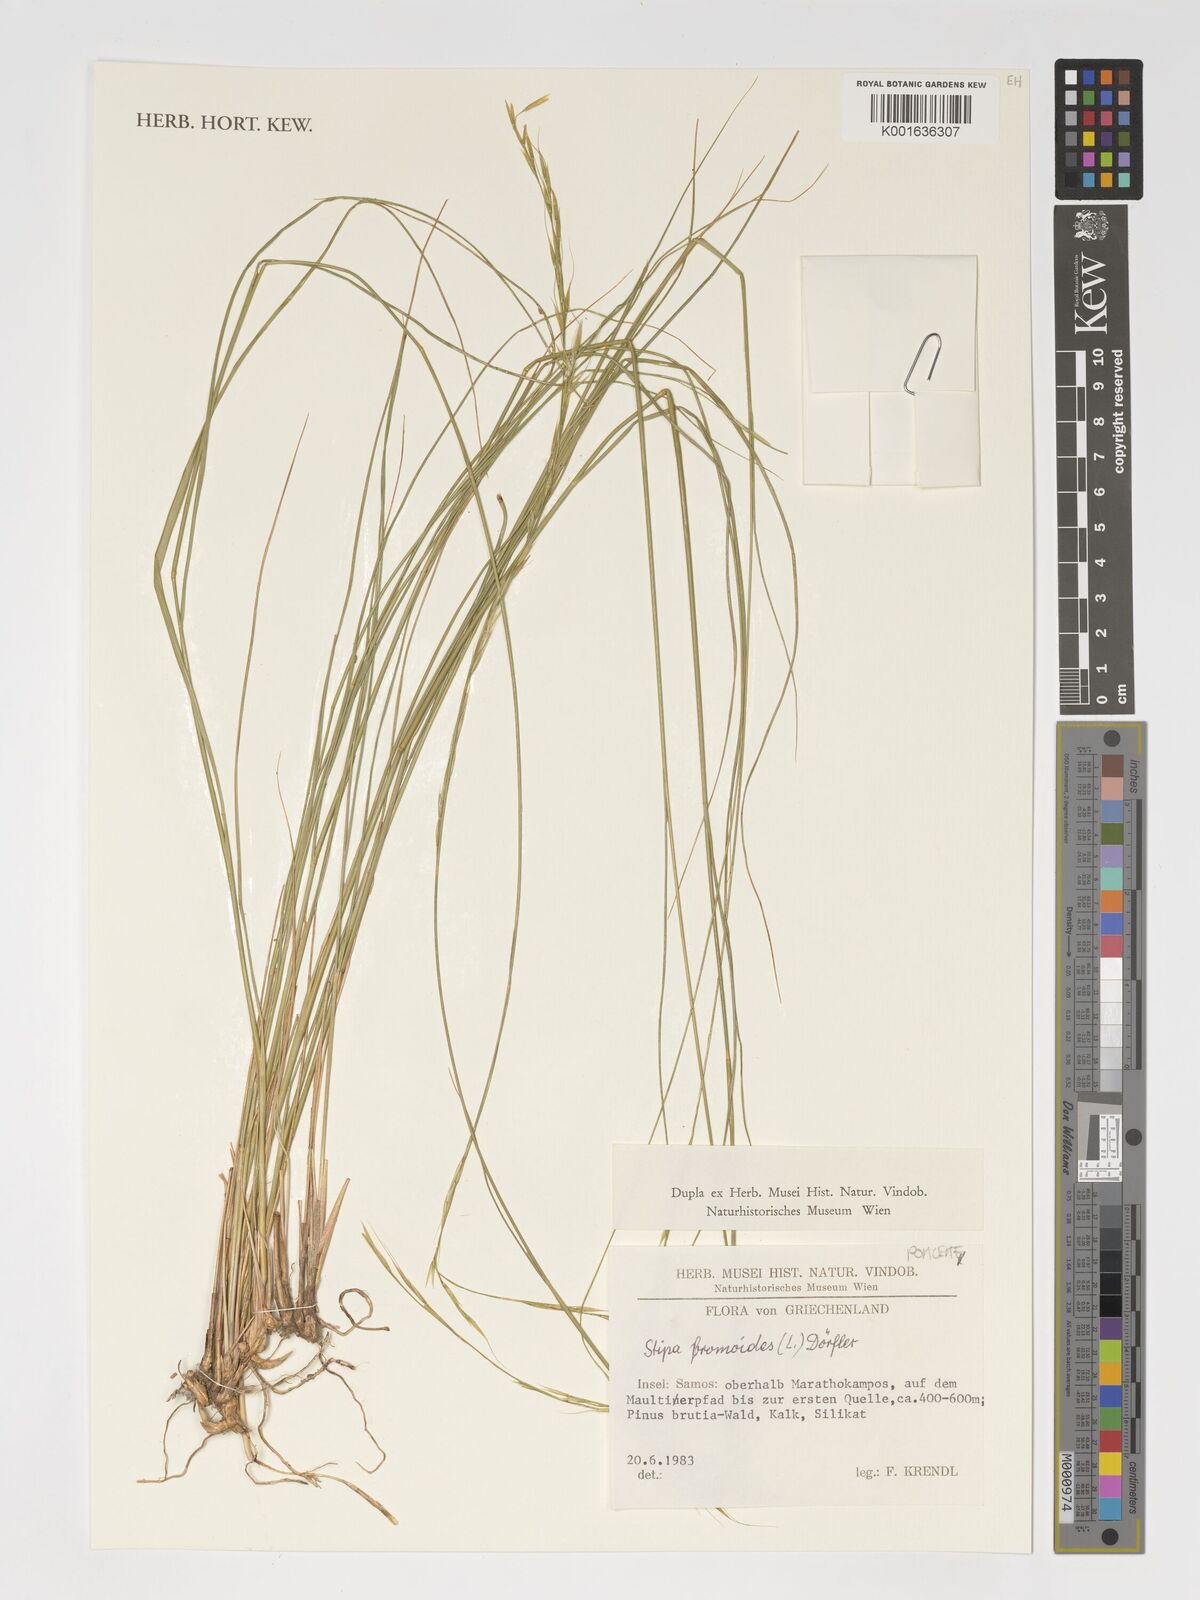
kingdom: Plantae
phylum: Tracheophyta
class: Liliopsida
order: Poales
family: Poaceae
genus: Achnatherum
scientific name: Achnatherum bromoides
